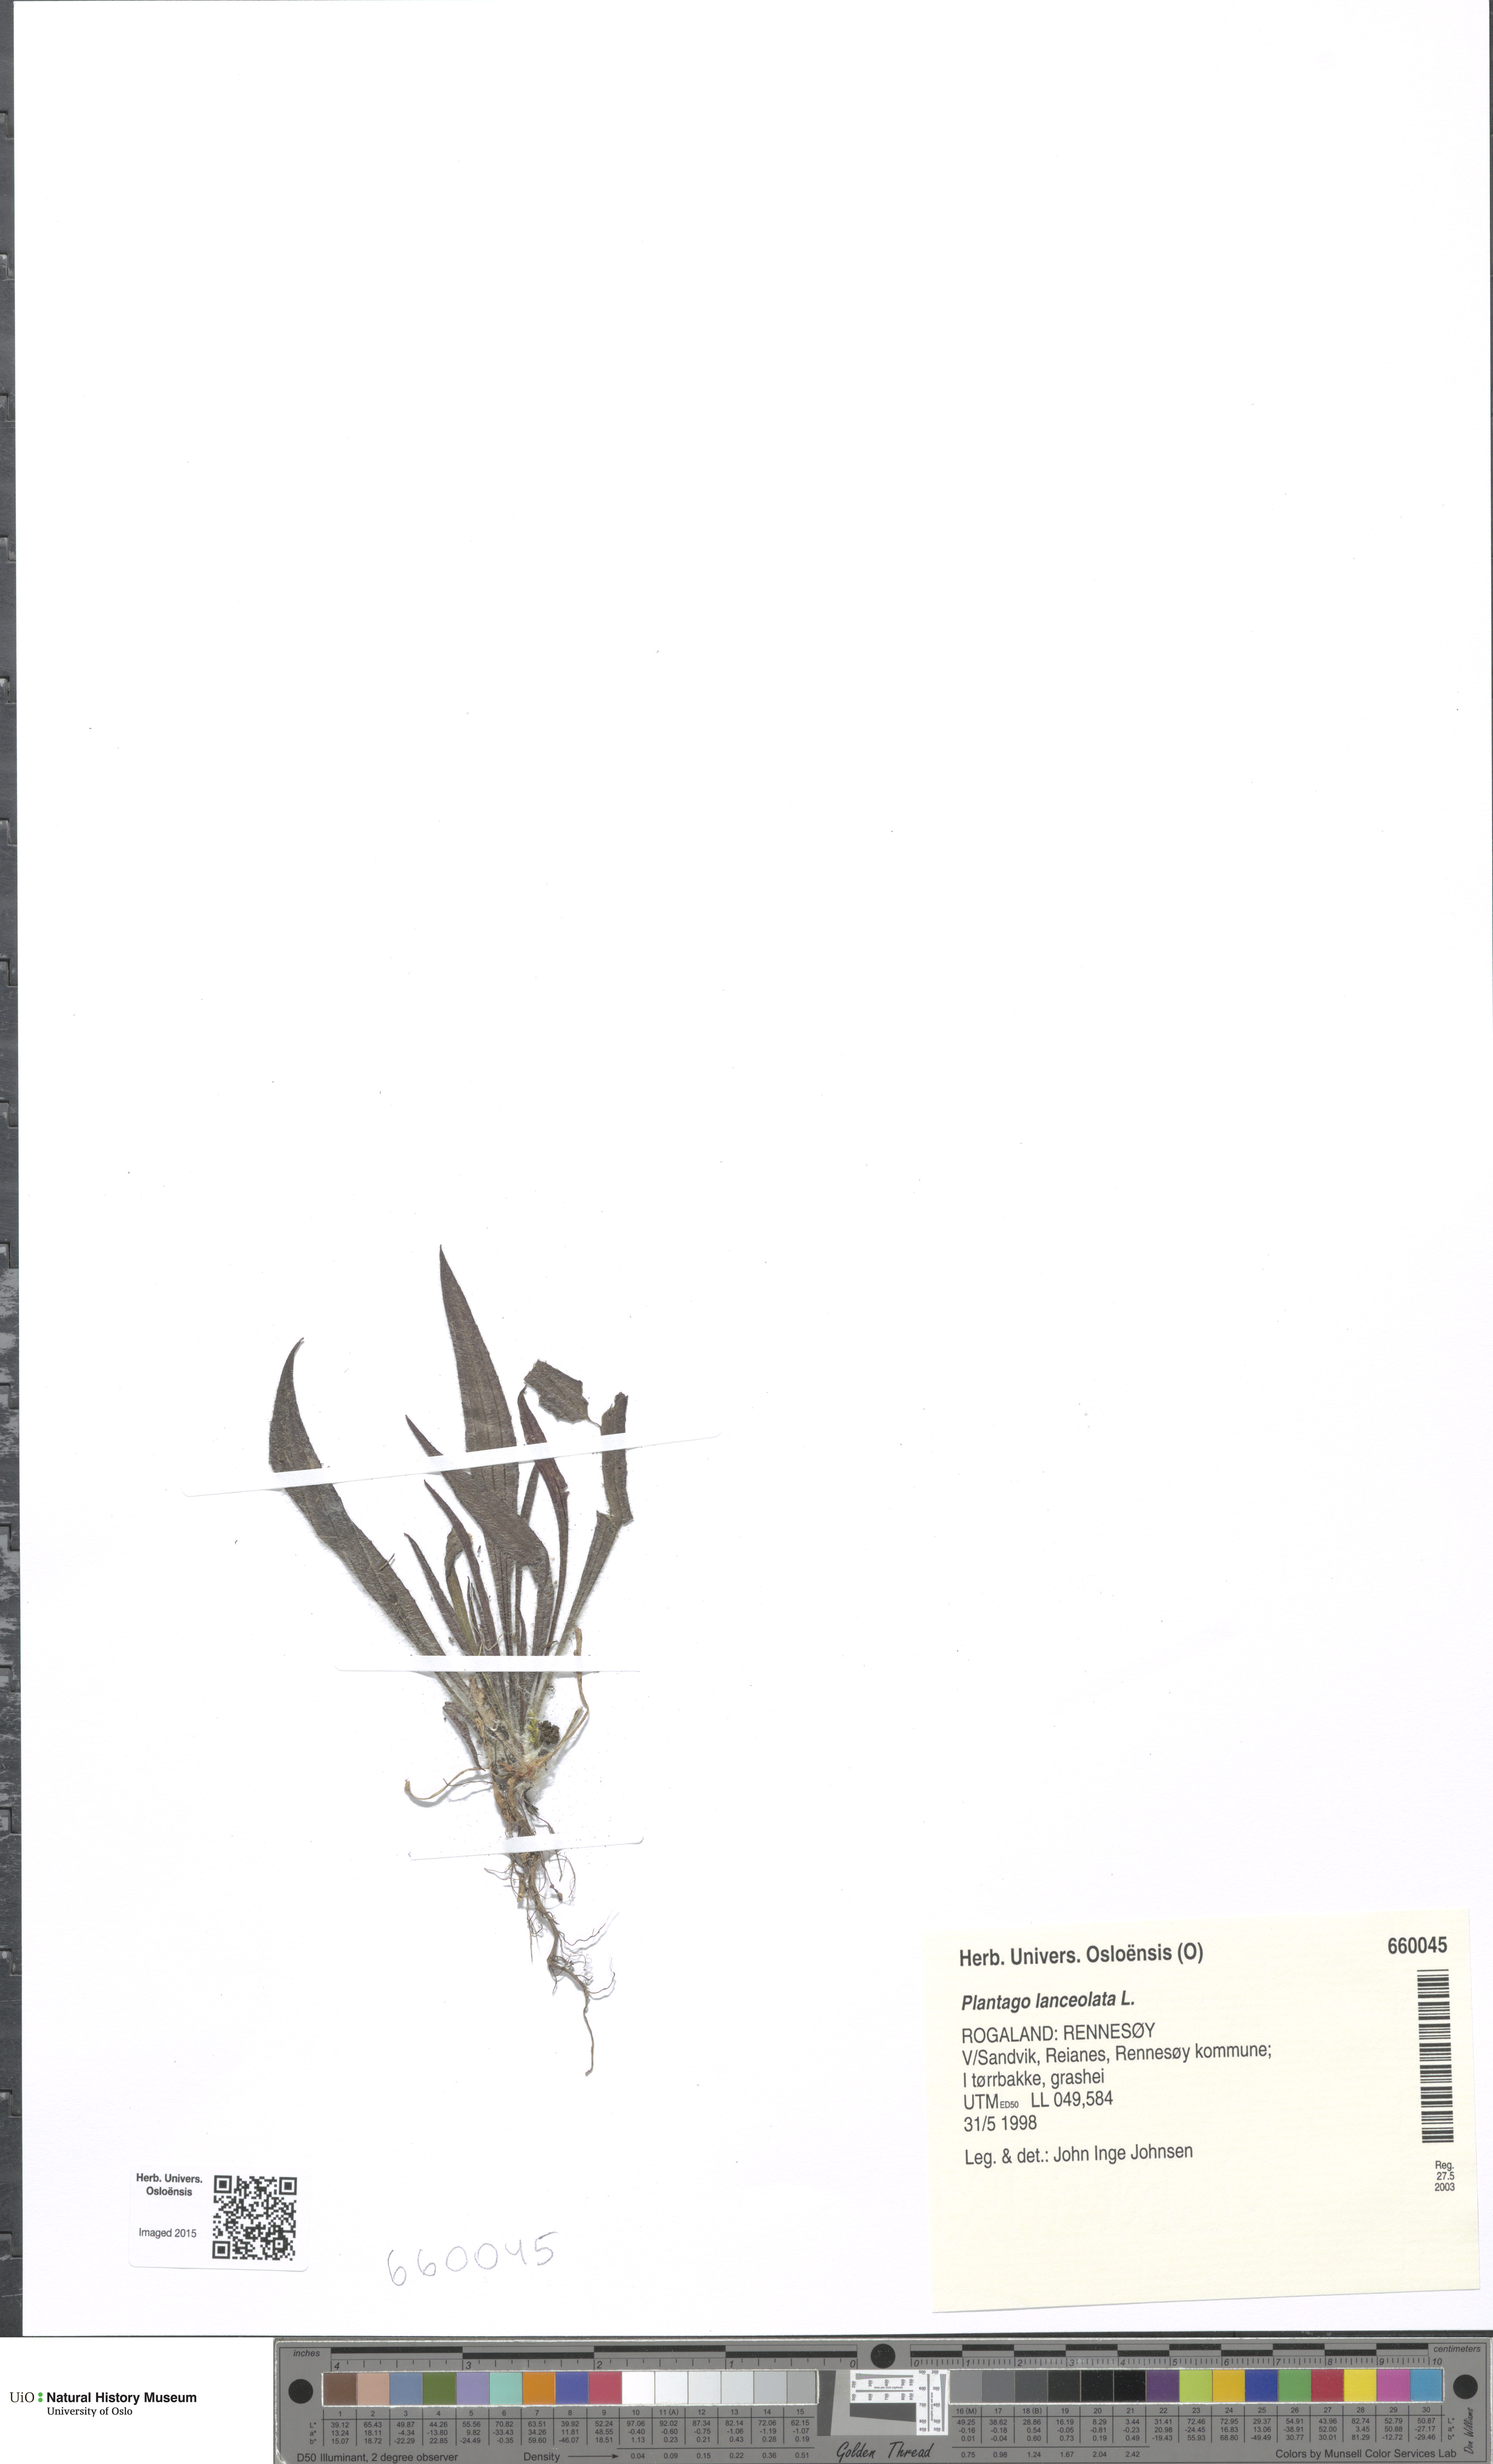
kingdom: Plantae
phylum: Tracheophyta
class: Magnoliopsida
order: Lamiales
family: Plantaginaceae
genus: Plantago
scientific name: Plantago lanceolata
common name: Ribwort plantain
